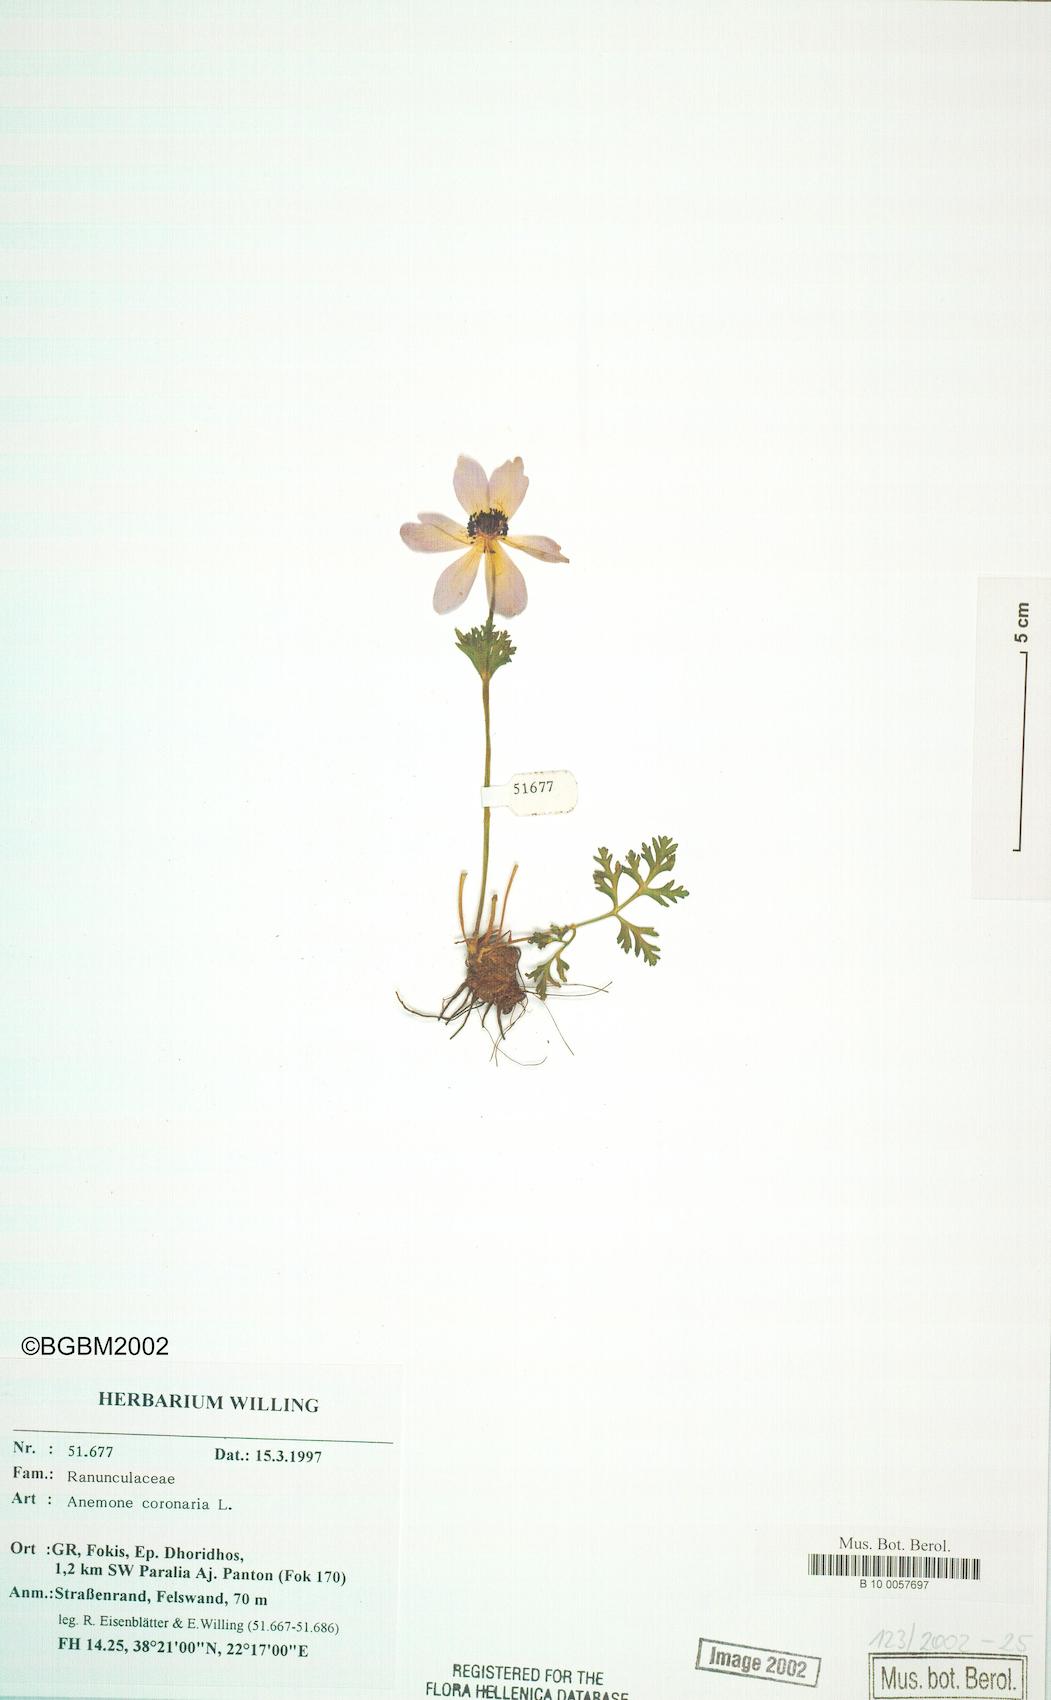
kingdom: Plantae
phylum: Tracheophyta
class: Magnoliopsida
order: Ranunculales
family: Ranunculaceae
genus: Anemone
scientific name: Anemone coronaria
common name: Poppy anemone
